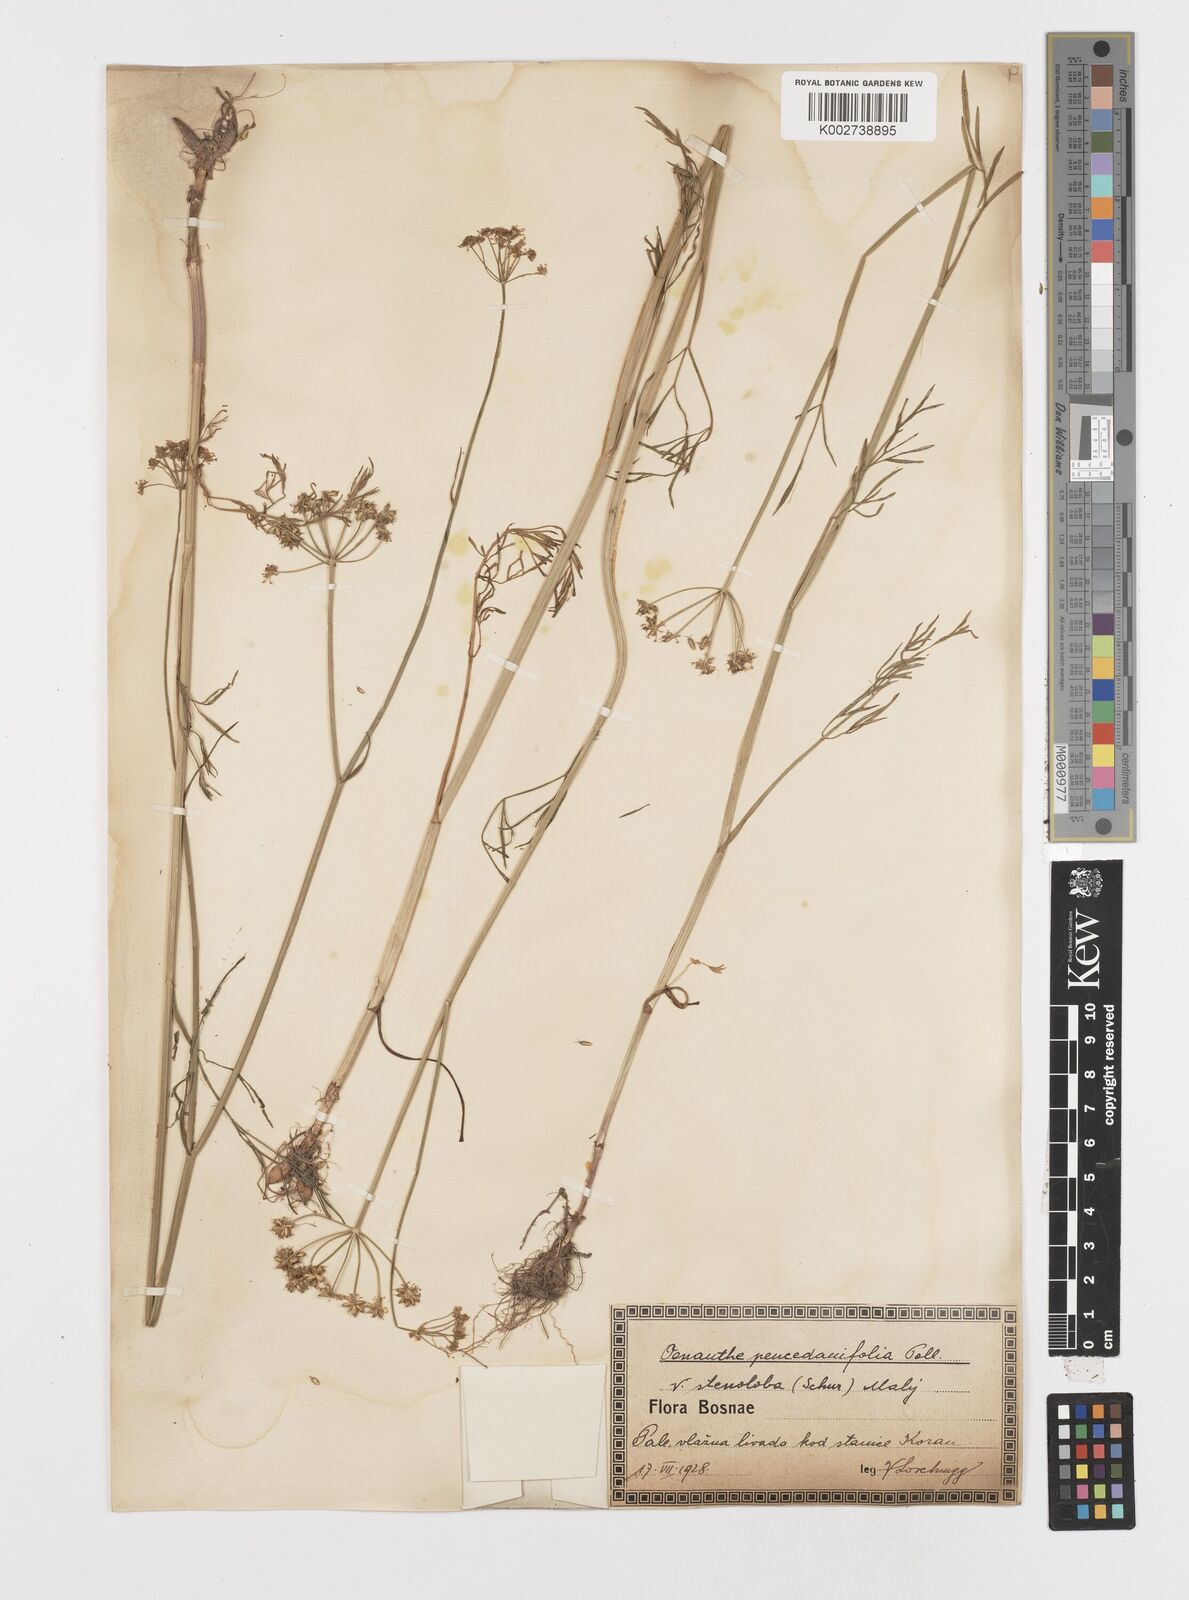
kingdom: Plantae
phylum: Tracheophyta
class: Magnoliopsida
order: Apiales
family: Apiaceae
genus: Oenanthe
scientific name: Oenanthe peucedanifolia
